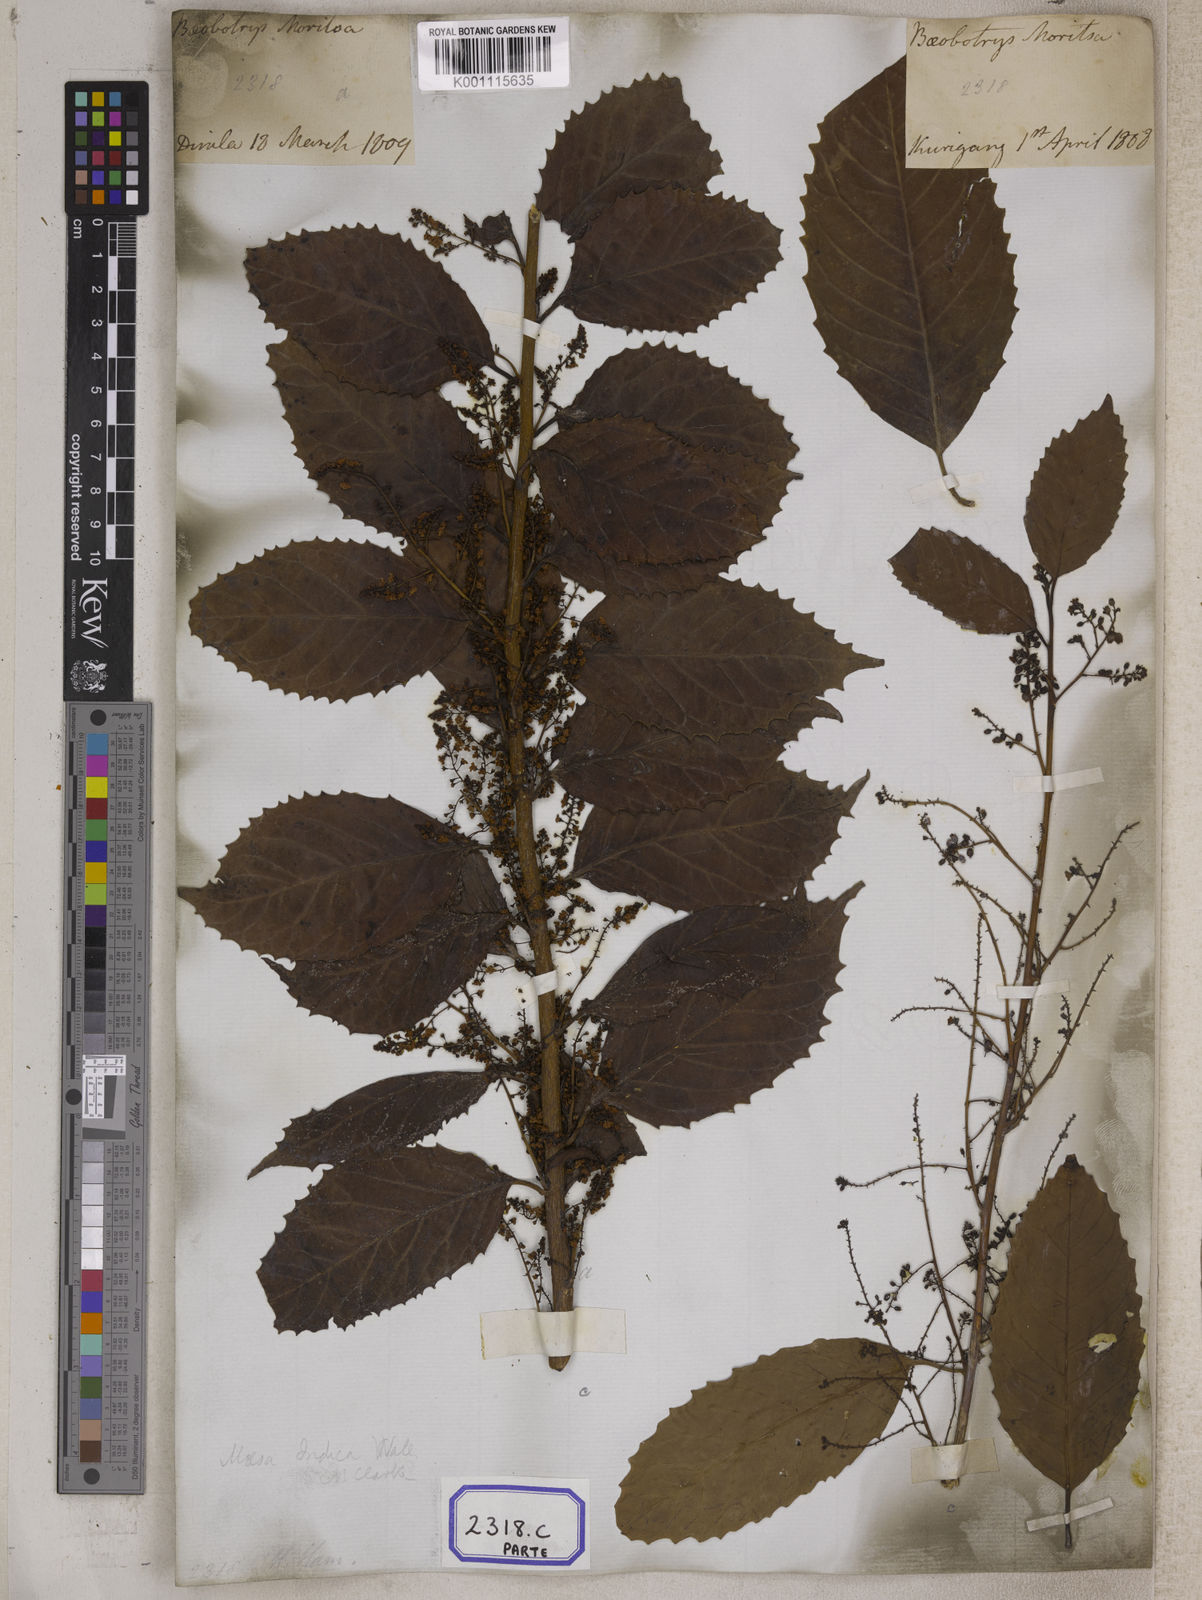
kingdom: Plantae
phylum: Tracheophyta
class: Magnoliopsida
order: Ericales
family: Primulaceae
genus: Maesa
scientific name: Maesa indica
